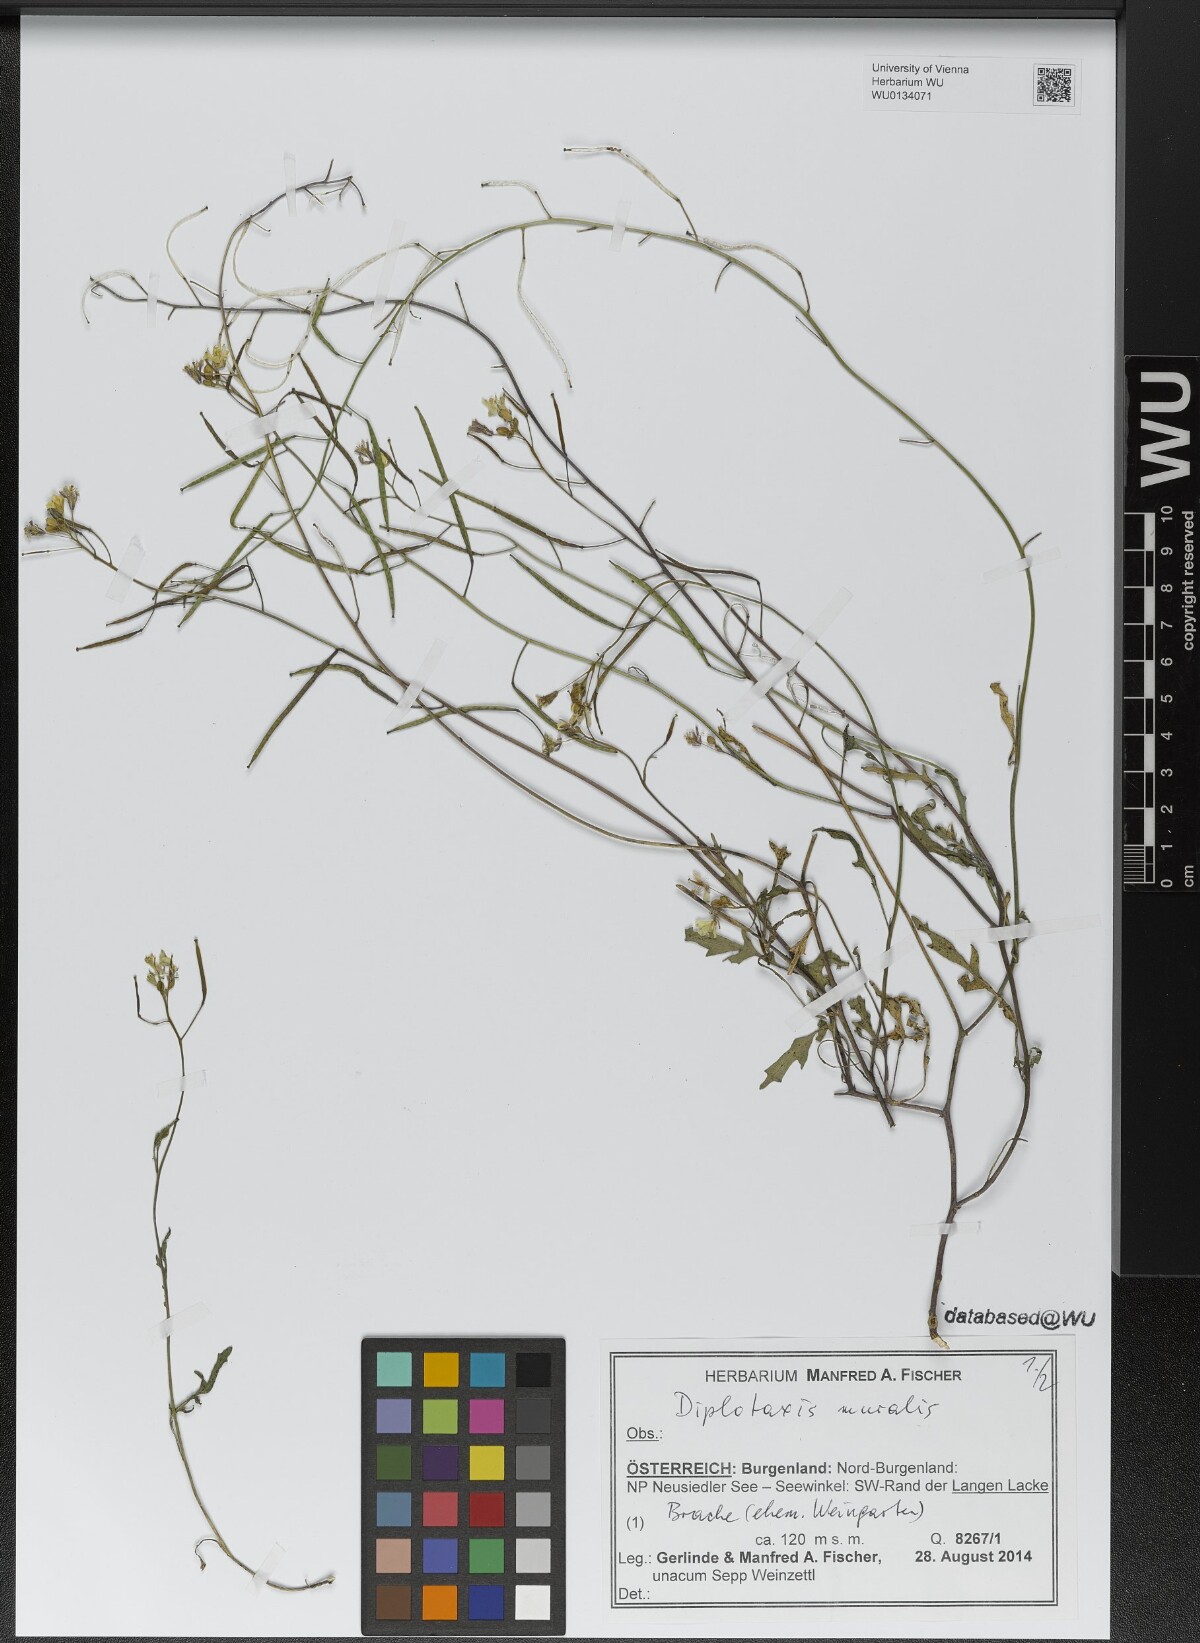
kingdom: Plantae
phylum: Tracheophyta
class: Magnoliopsida
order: Brassicales
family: Brassicaceae
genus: Diplotaxis
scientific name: Diplotaxis muralis
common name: Annual wall-rocket
